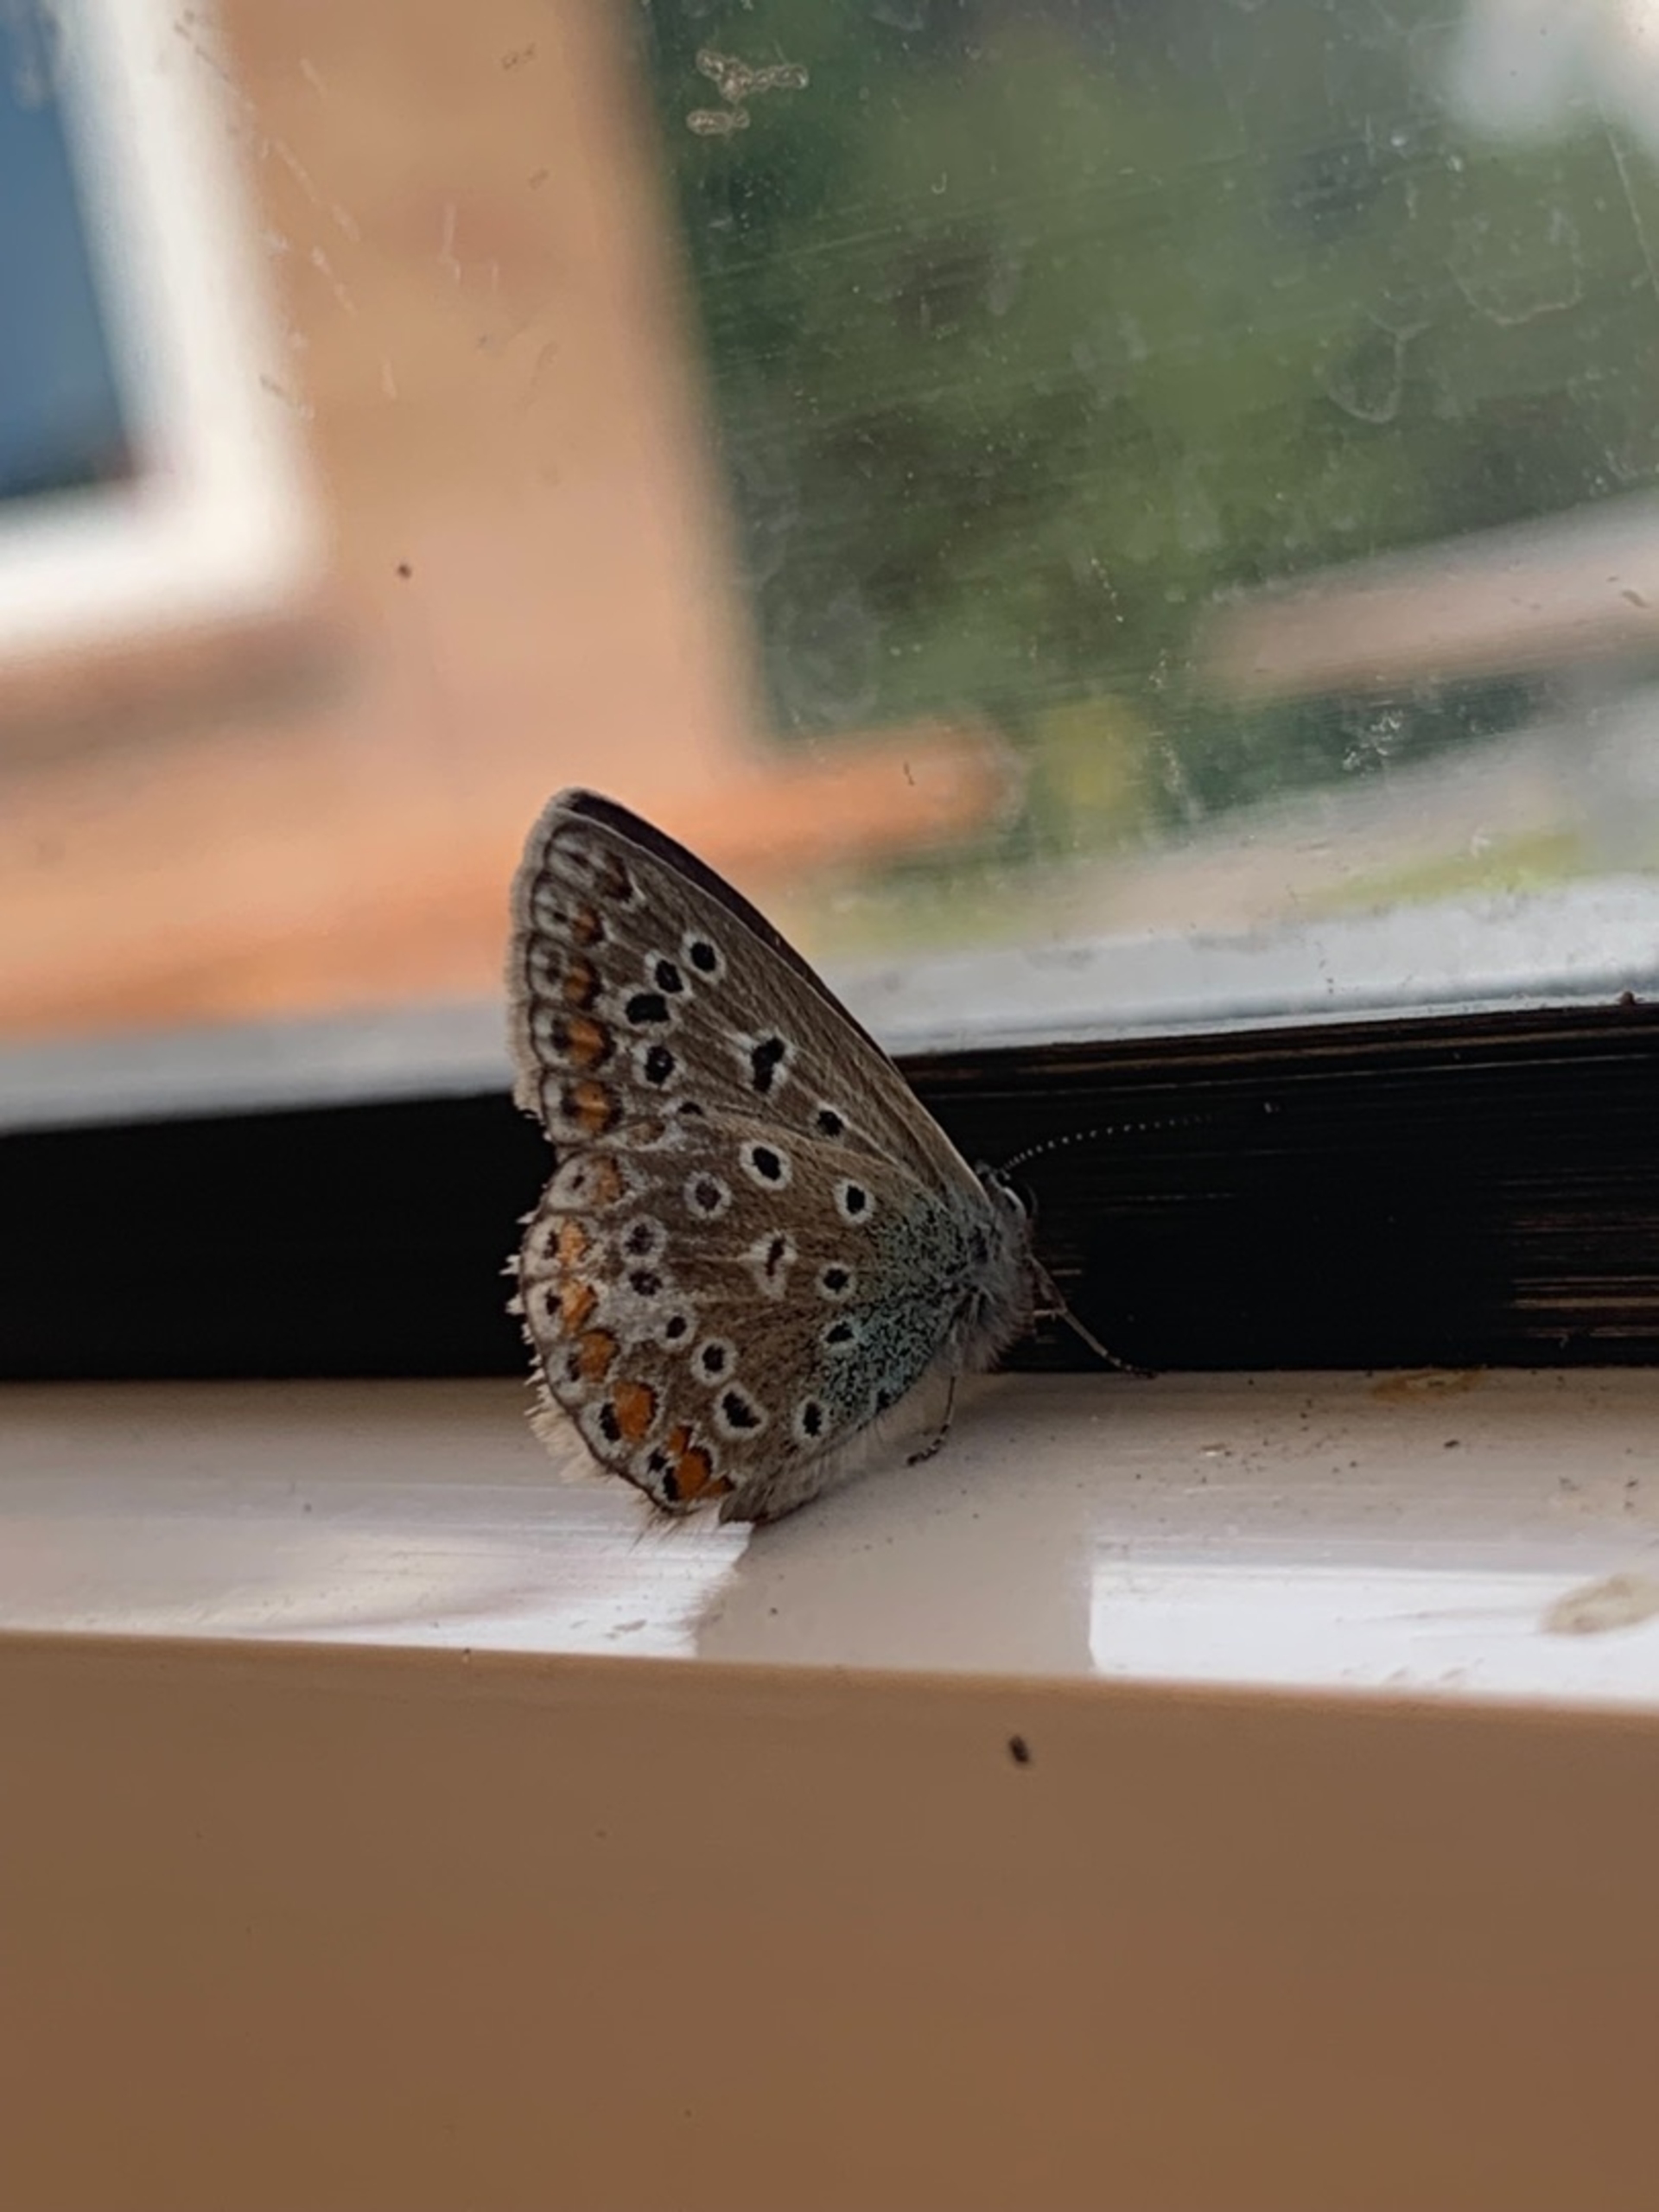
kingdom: Animalia
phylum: Arthropoda
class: Insecta
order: Lepidoptera
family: Lycaenidae
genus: Polyommatus
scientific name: Polyommatus icarus
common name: Almindelig blåfugl
